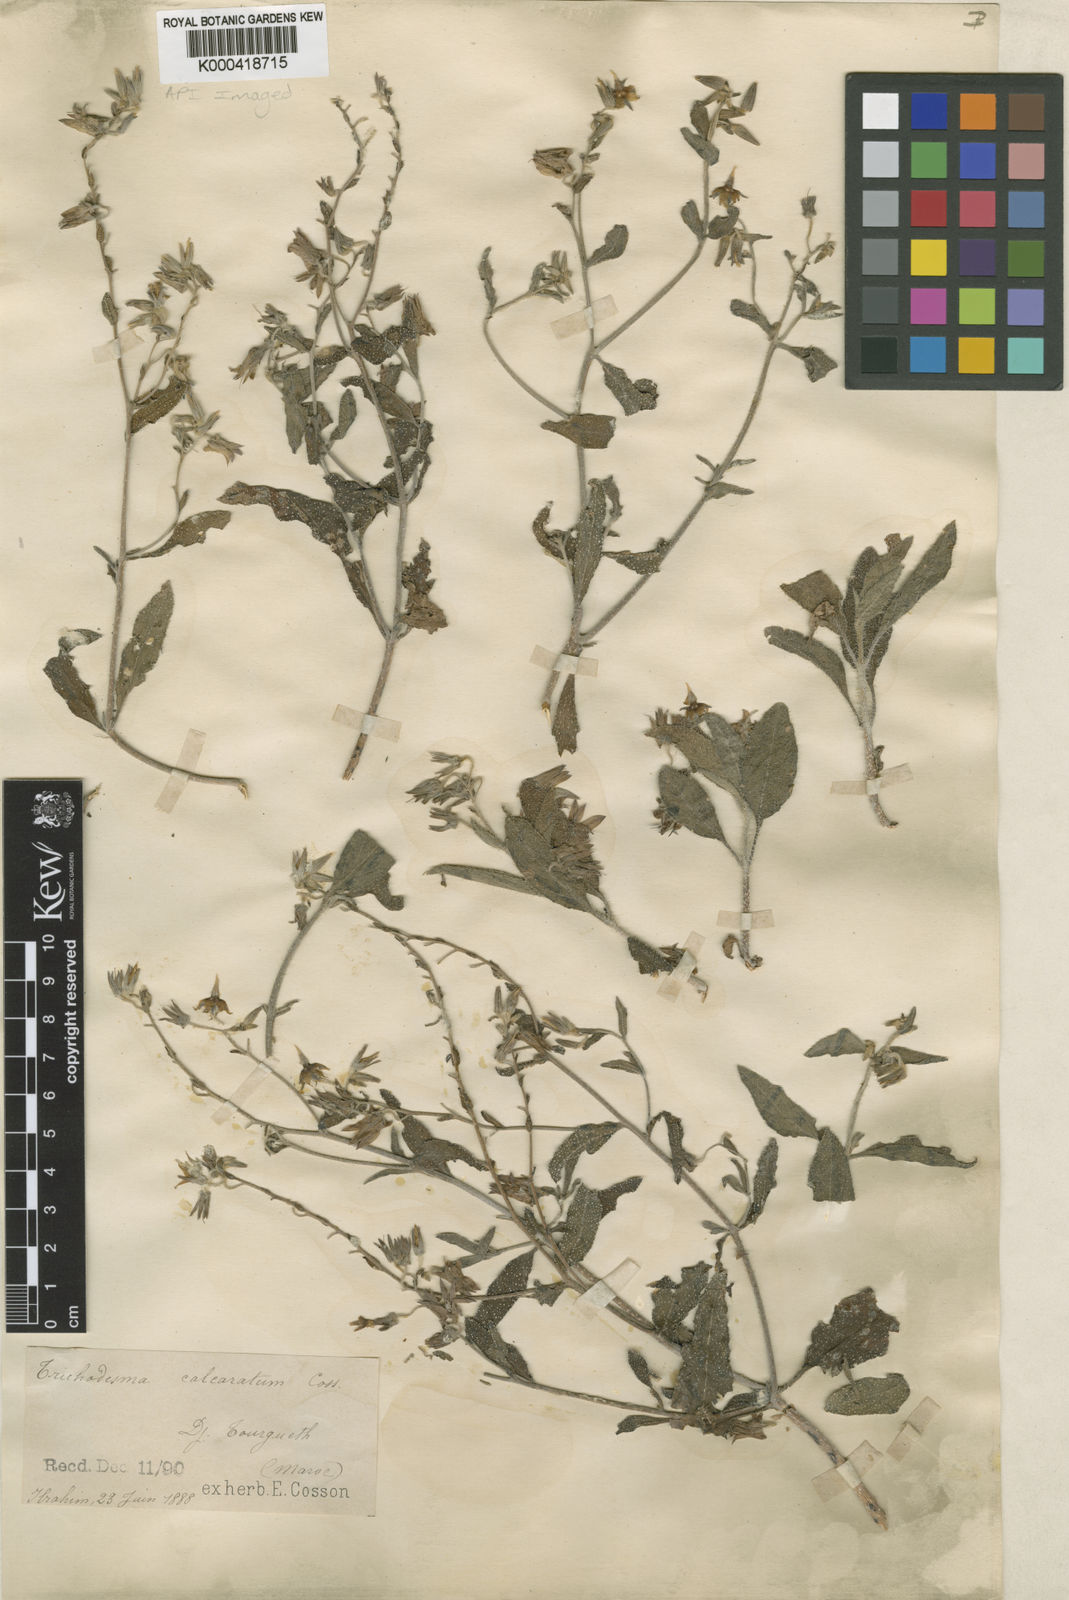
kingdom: Plantae
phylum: Tracheophyta
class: Magnoliopsida
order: Boraginales
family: Boraginaceae
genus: Trichodesma
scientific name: Trichodesma
